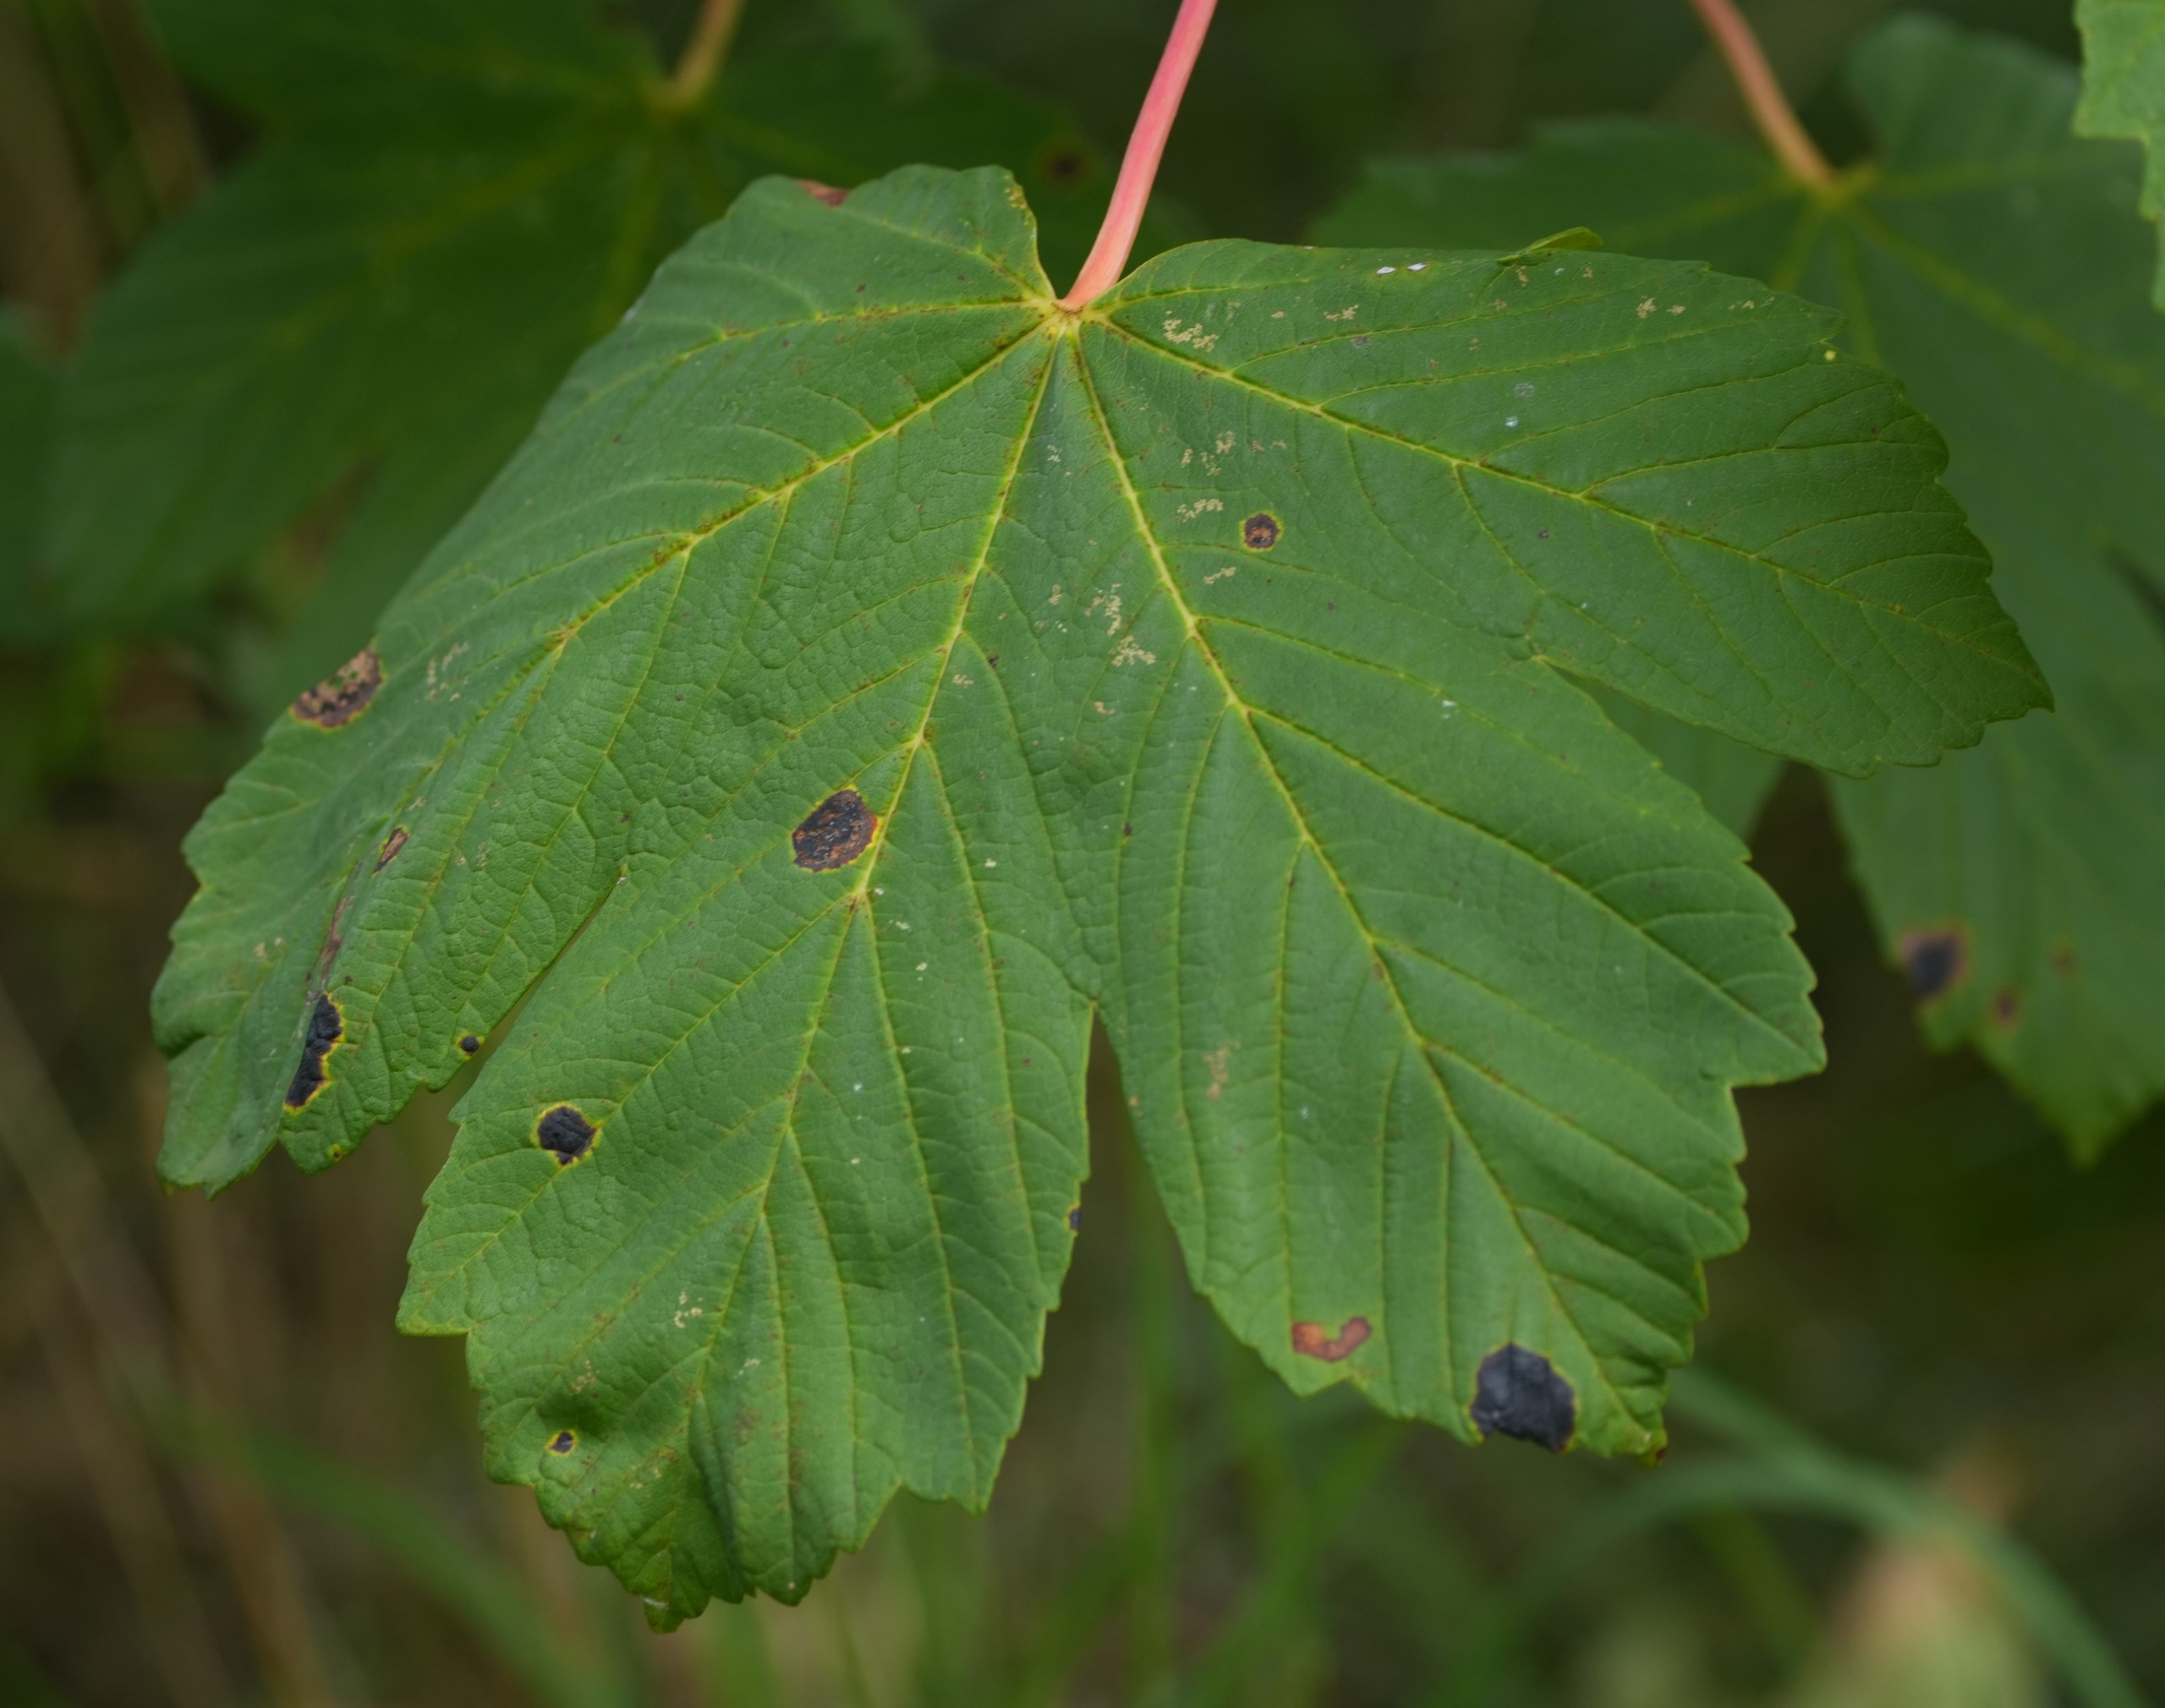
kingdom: Plantae
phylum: Tracheophyta
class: Magnoliopsida
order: Sapindales
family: Sapindaceae
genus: Acer
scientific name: Acer pseudoplatanus
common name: Ahorn
